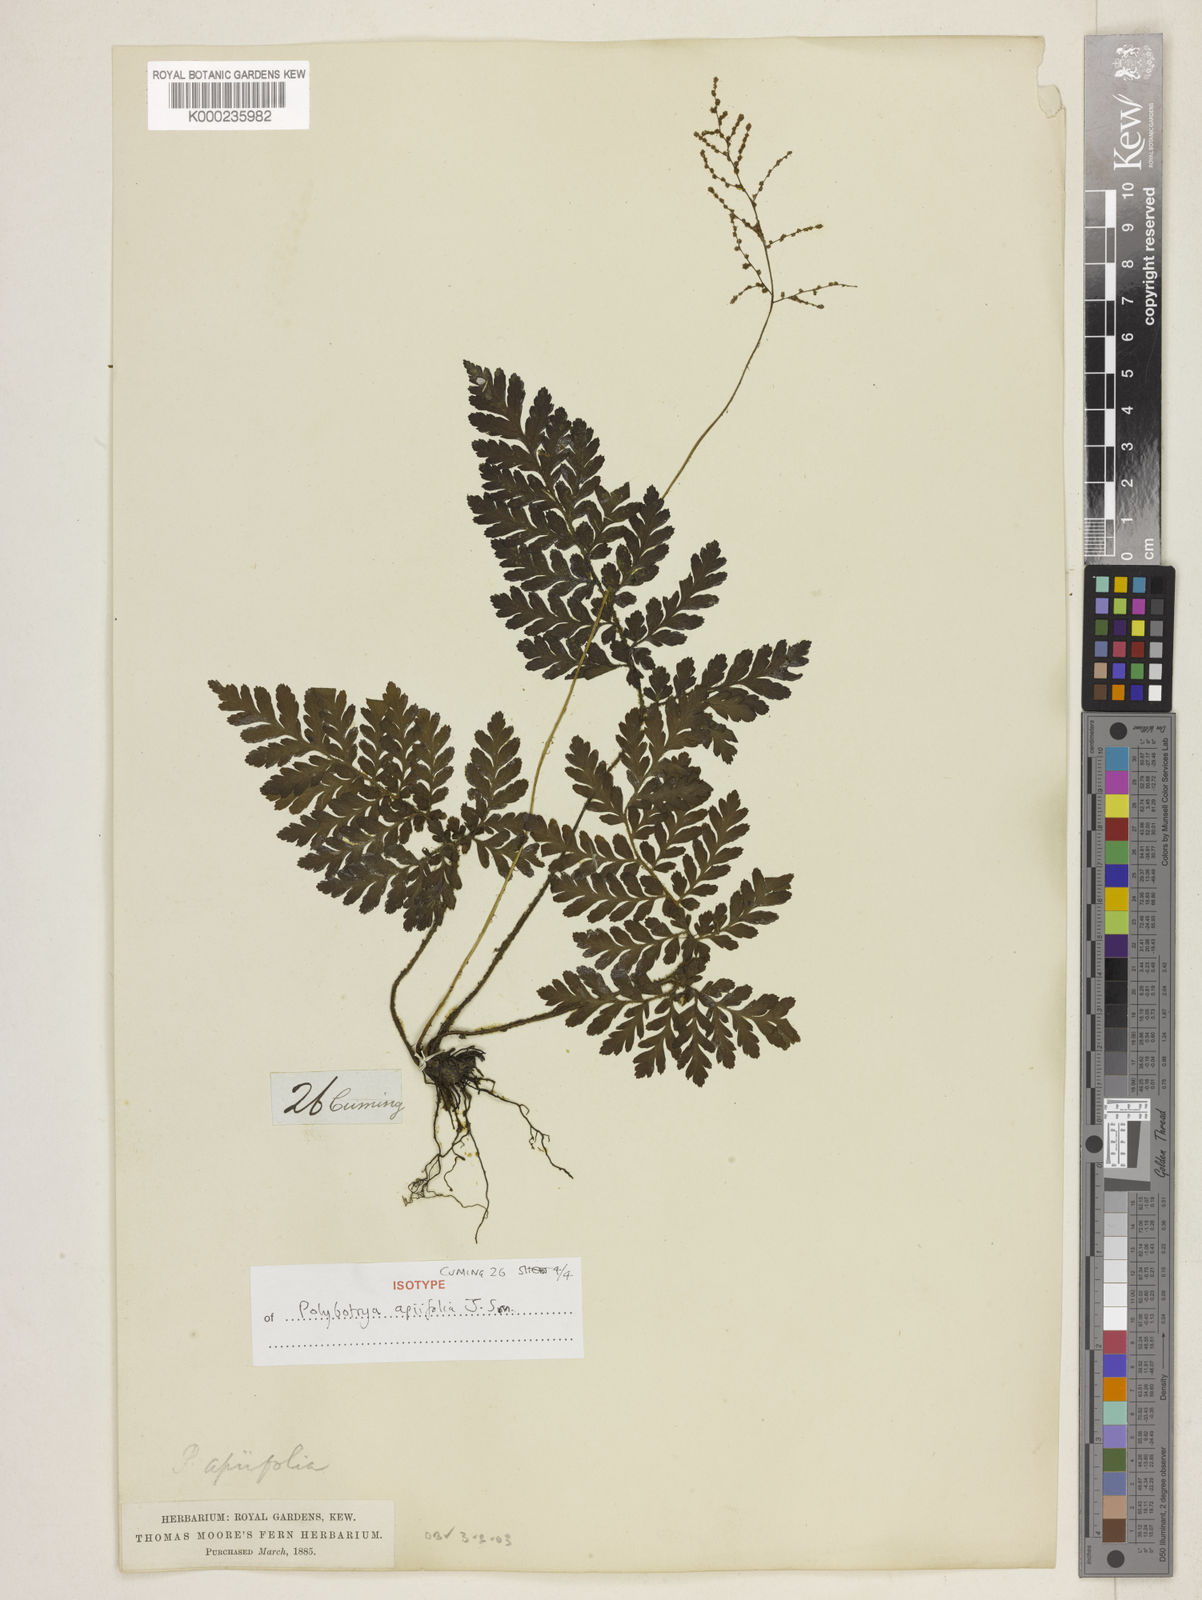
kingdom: Plantae
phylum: Tracheophyta
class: Polypodiopsida
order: Polypodiales
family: Tectariaceae
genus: Psomiocarpa
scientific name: Psomiocarpa
